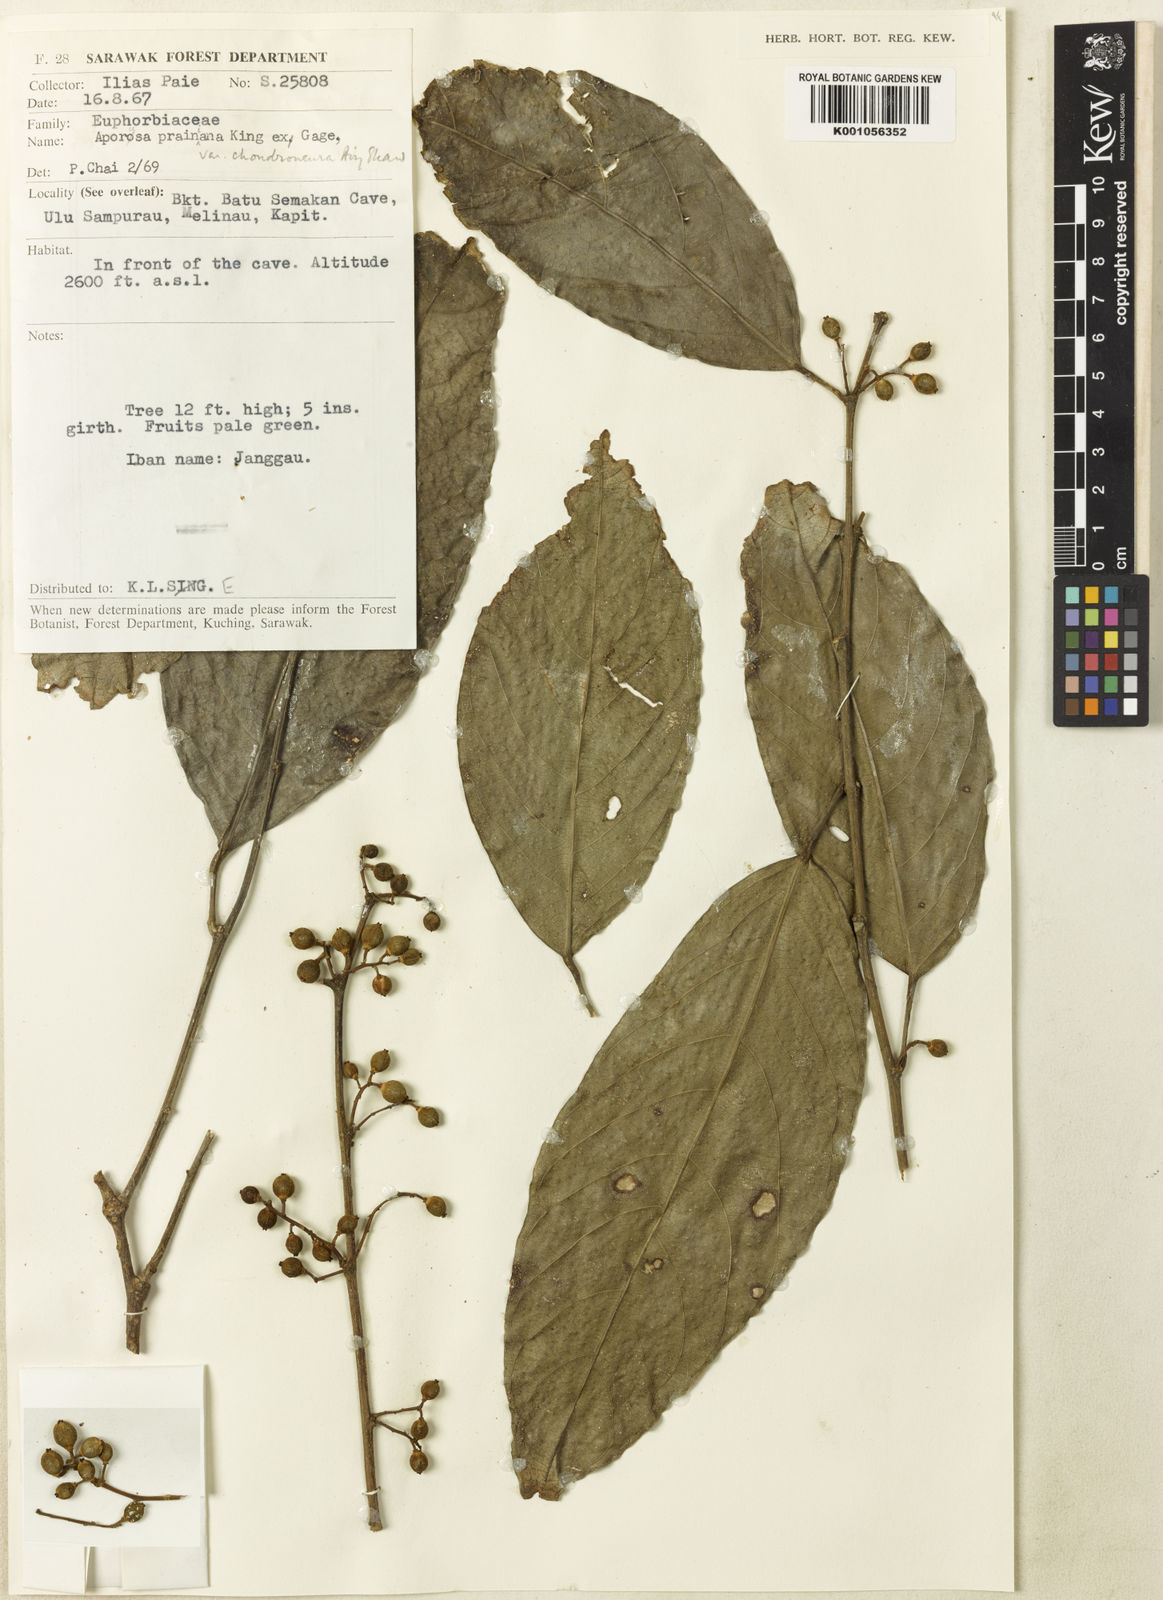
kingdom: Plantae
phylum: Tracheophyta
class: Magnoliopsida
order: Malpighiales
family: Phyllanthaceae
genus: Aporosa
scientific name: Aporosa chondroneura
